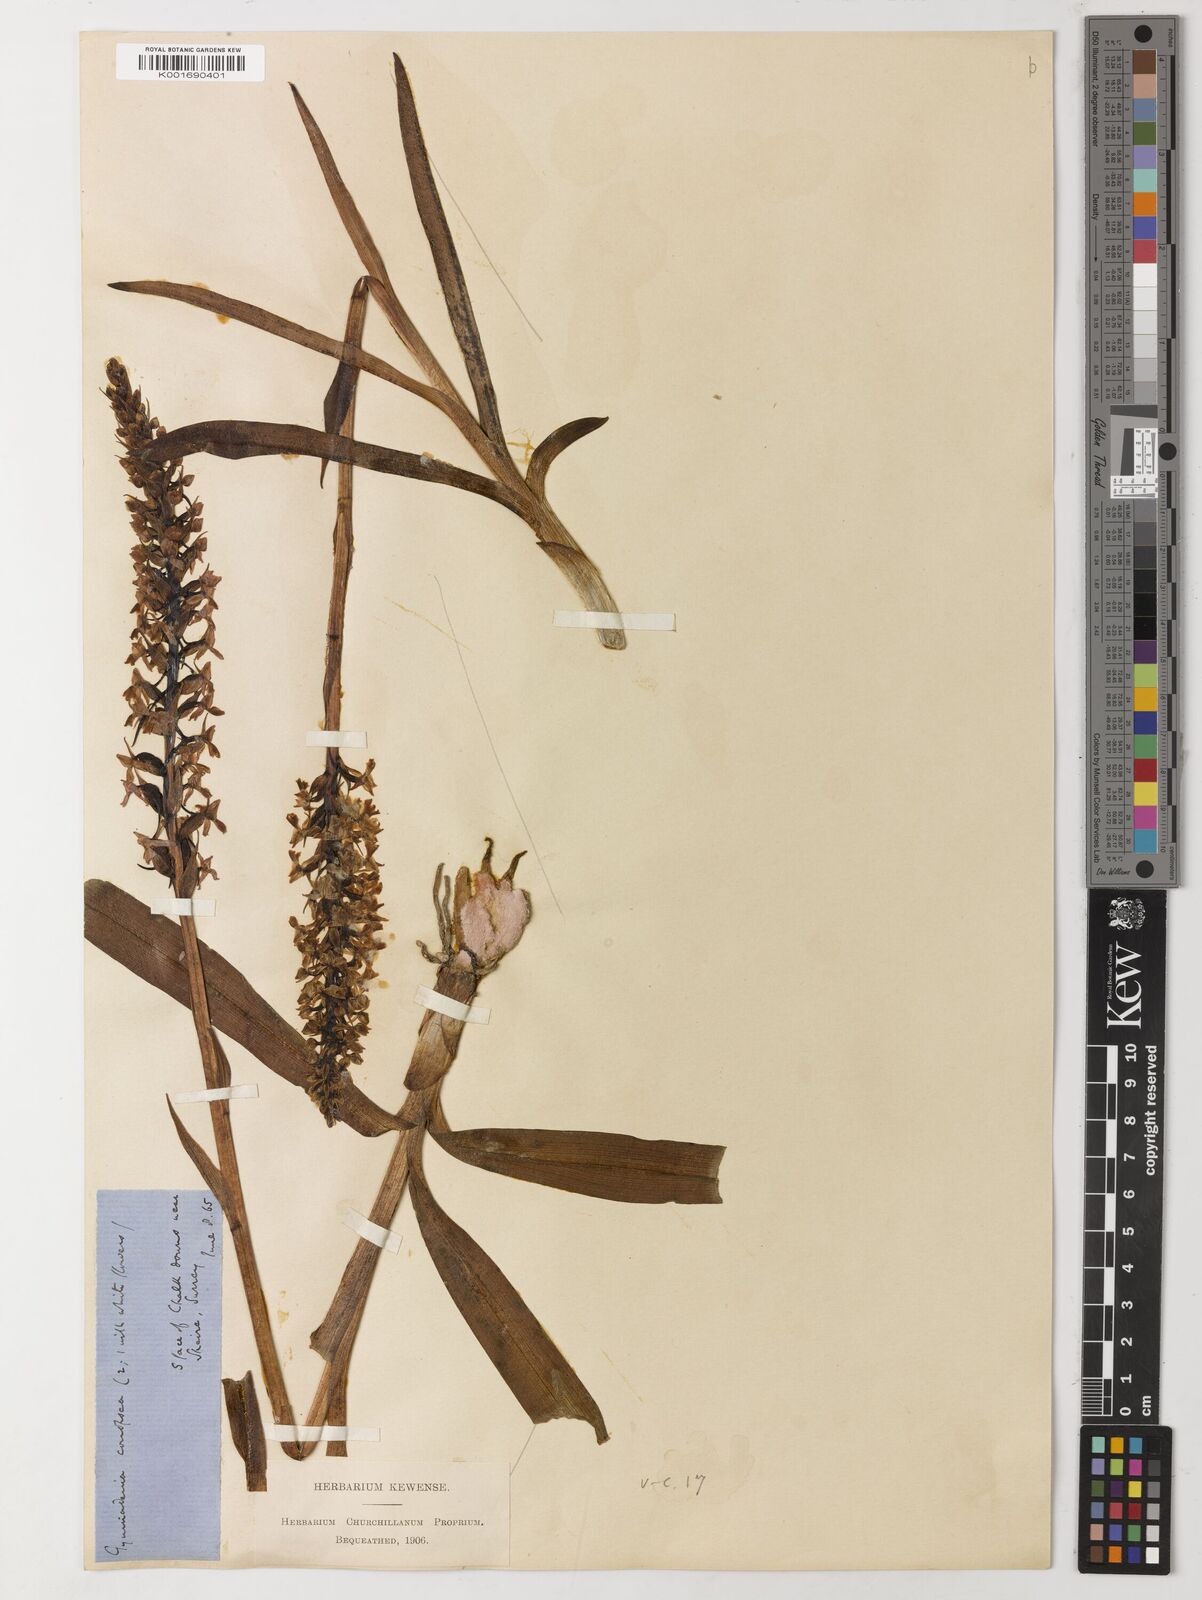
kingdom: Plantae
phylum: Tracheophyta
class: Magnoliopsida
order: Fabales
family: Fabaceae
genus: Havardia
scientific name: Havardia acatlensis
